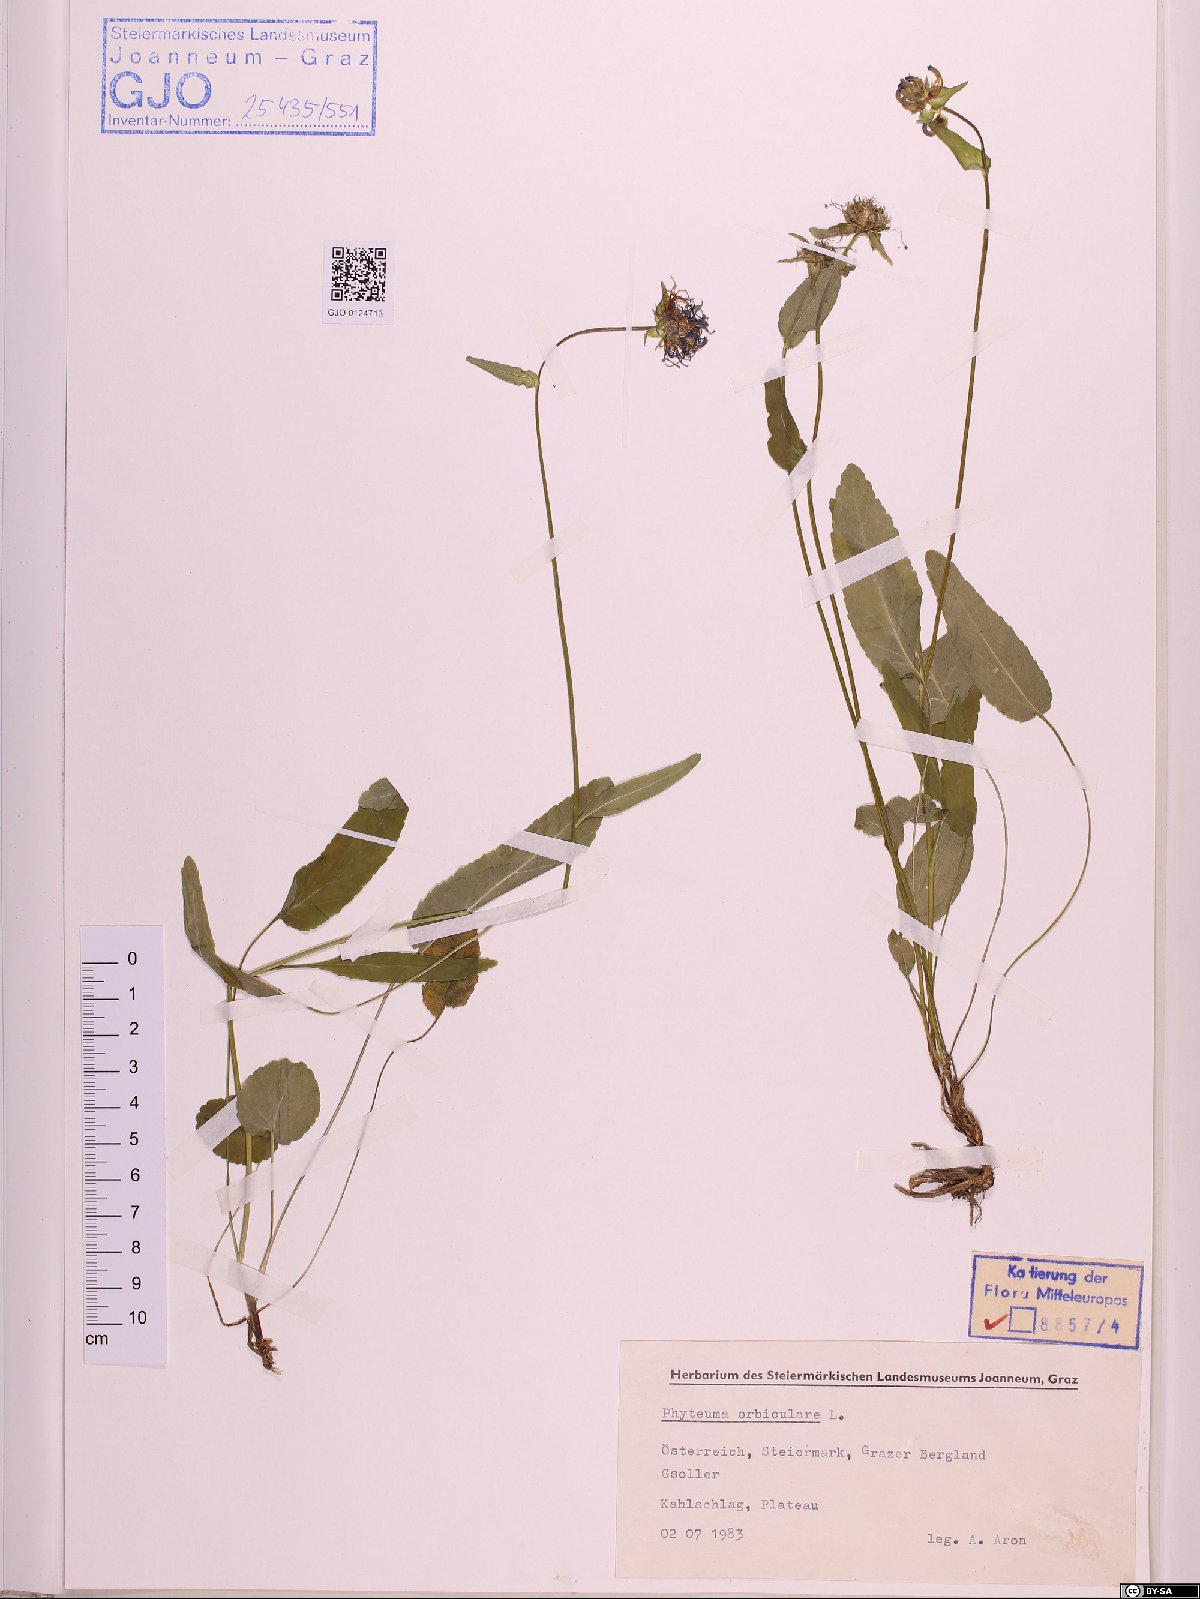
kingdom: Plantae
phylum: Tracheophyta
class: Magnoliopsida
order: Asterales
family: Campanulaceae
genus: Phyteuma
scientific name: Phyteuma orbiculare
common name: Round-headed rampion
